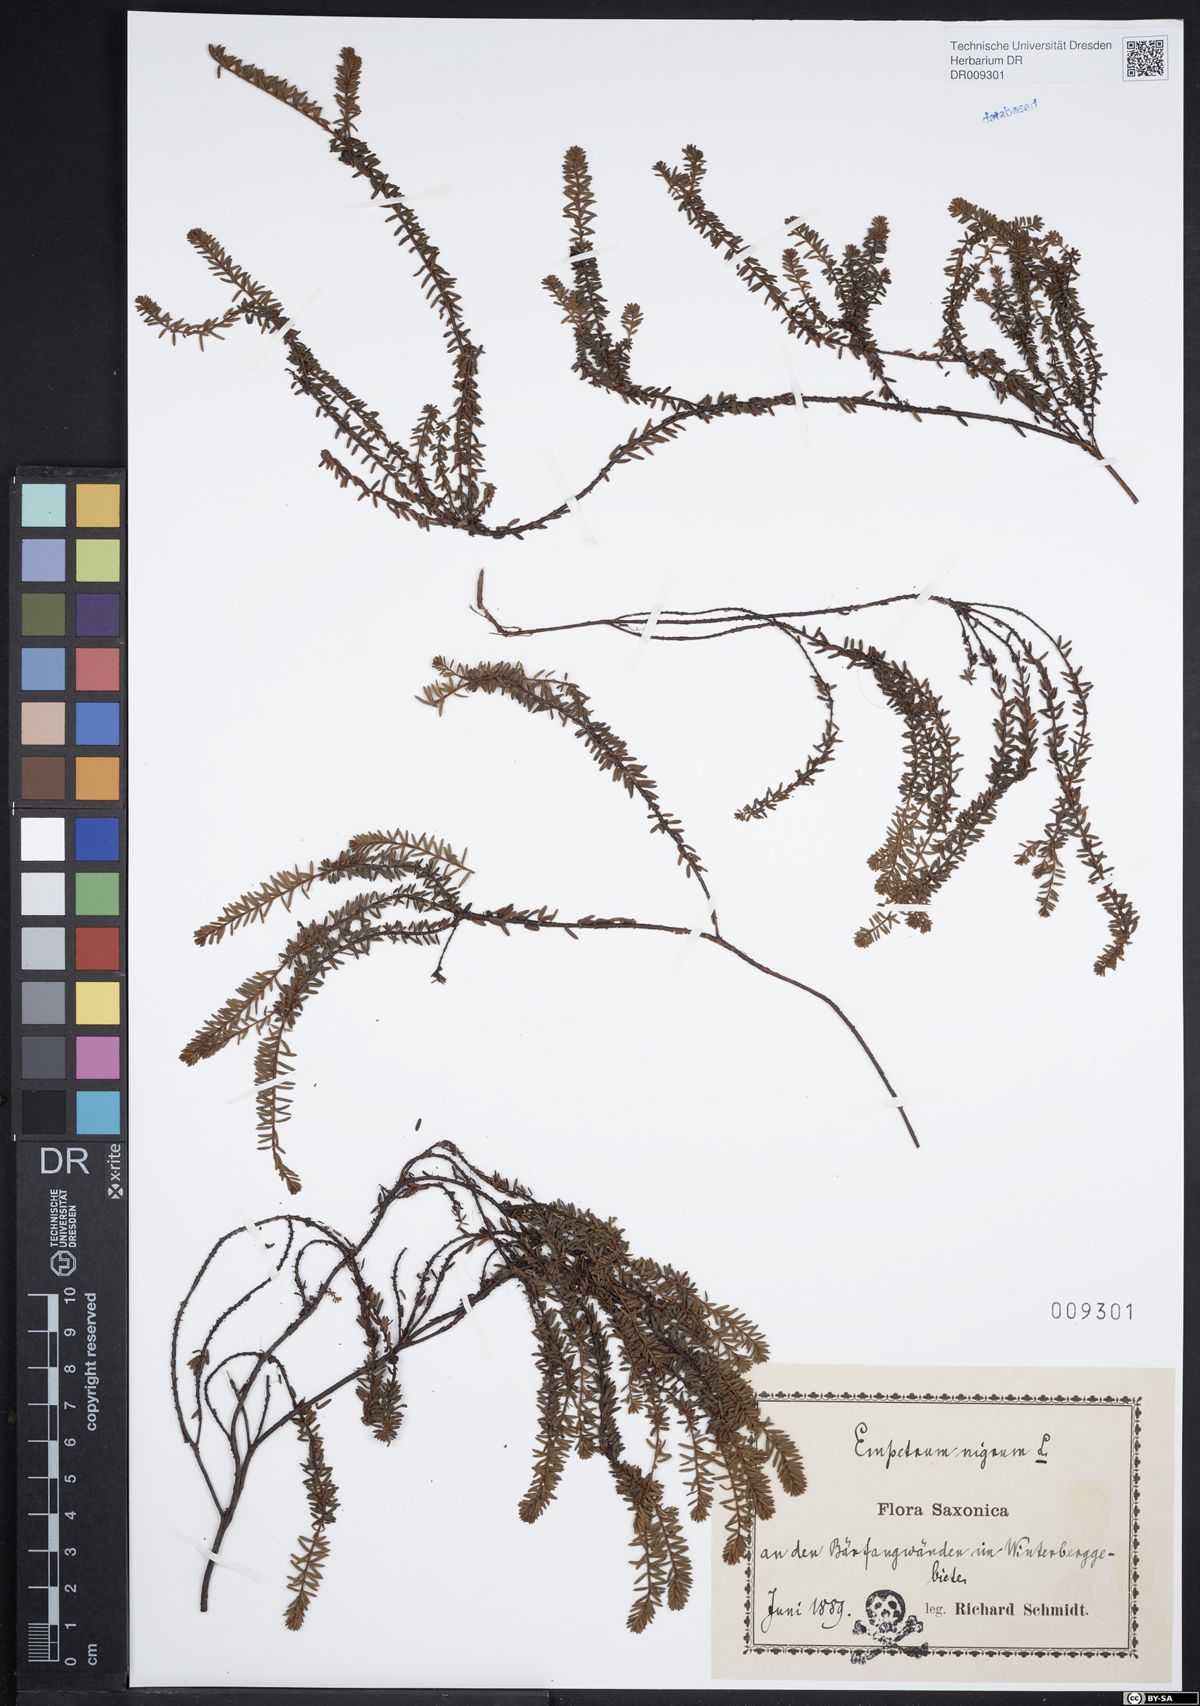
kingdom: Plantae
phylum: Tracheophyta
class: Magnoliopsida
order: Ericales
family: Ericaceae
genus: Empetrum
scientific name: Empetrum nigrum
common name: Black crowberry
